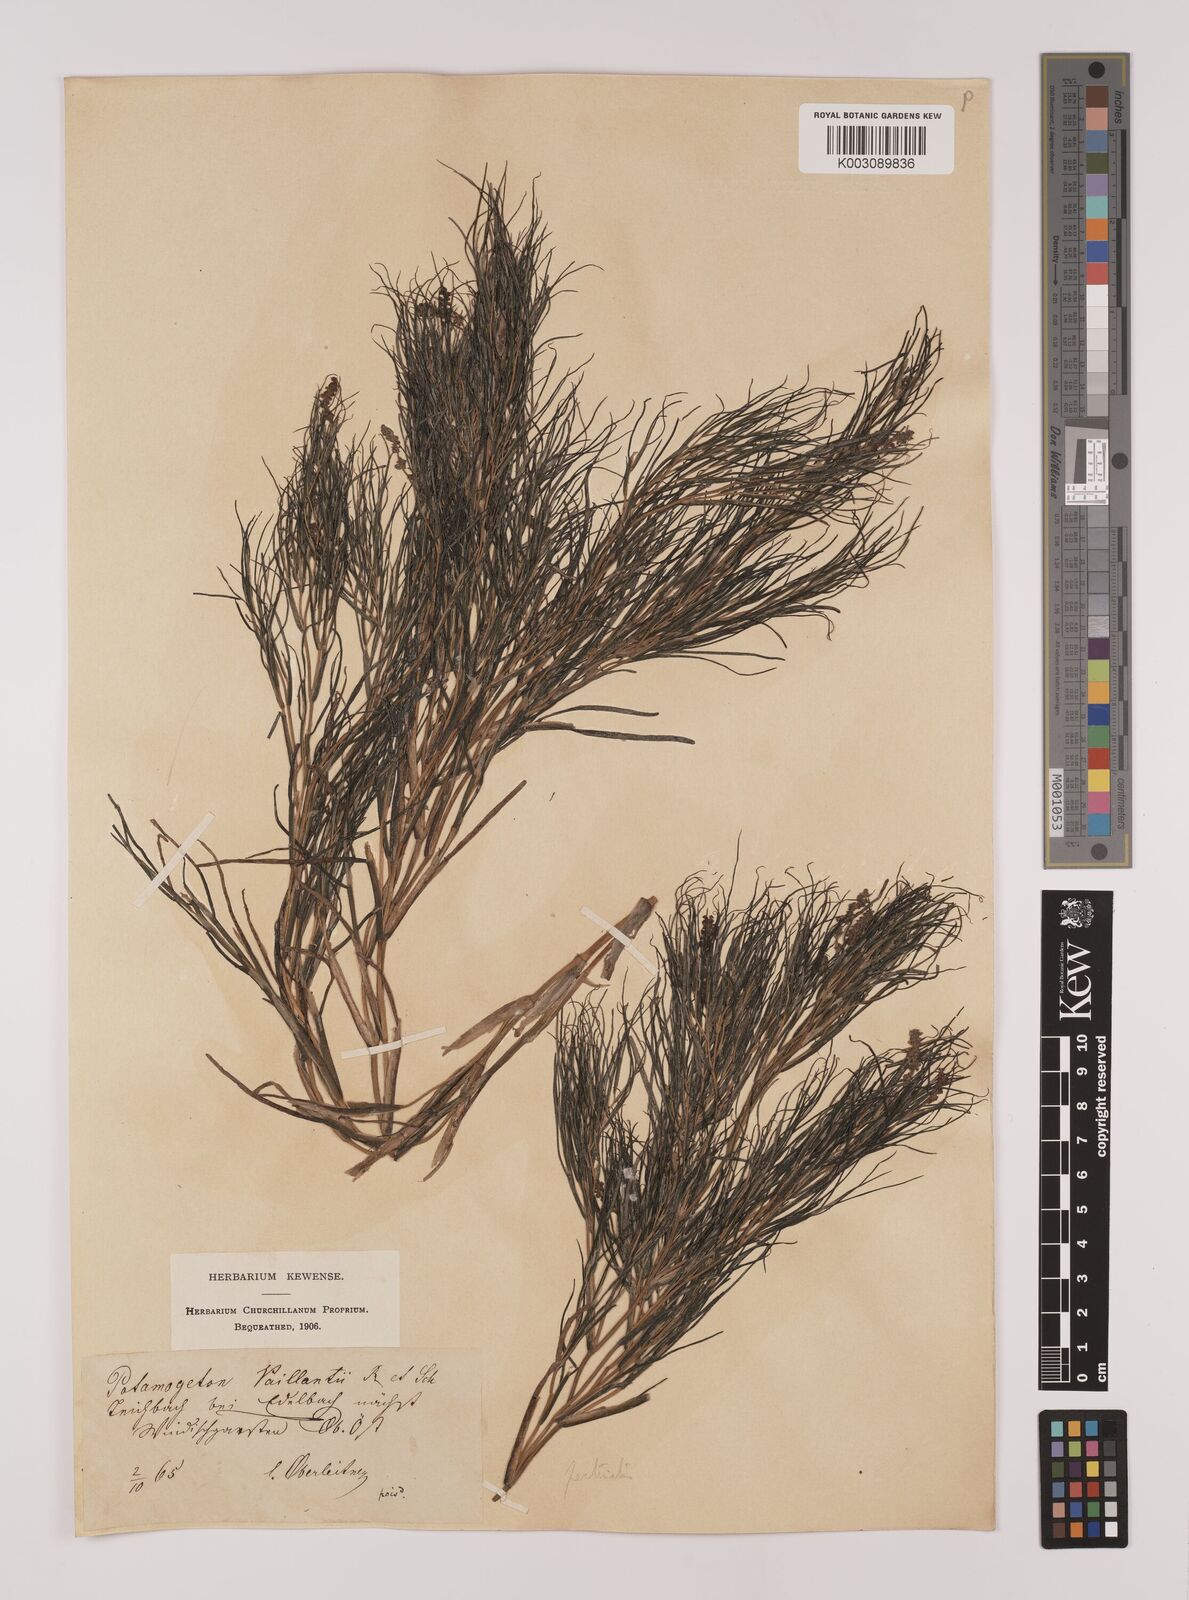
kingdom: Plantae
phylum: Tracheophyta
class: Liliopsida
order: Alismatales
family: Potamogetonaceae
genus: Stuckenia
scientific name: Stuckenia pectinata
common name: Sago pondweed
